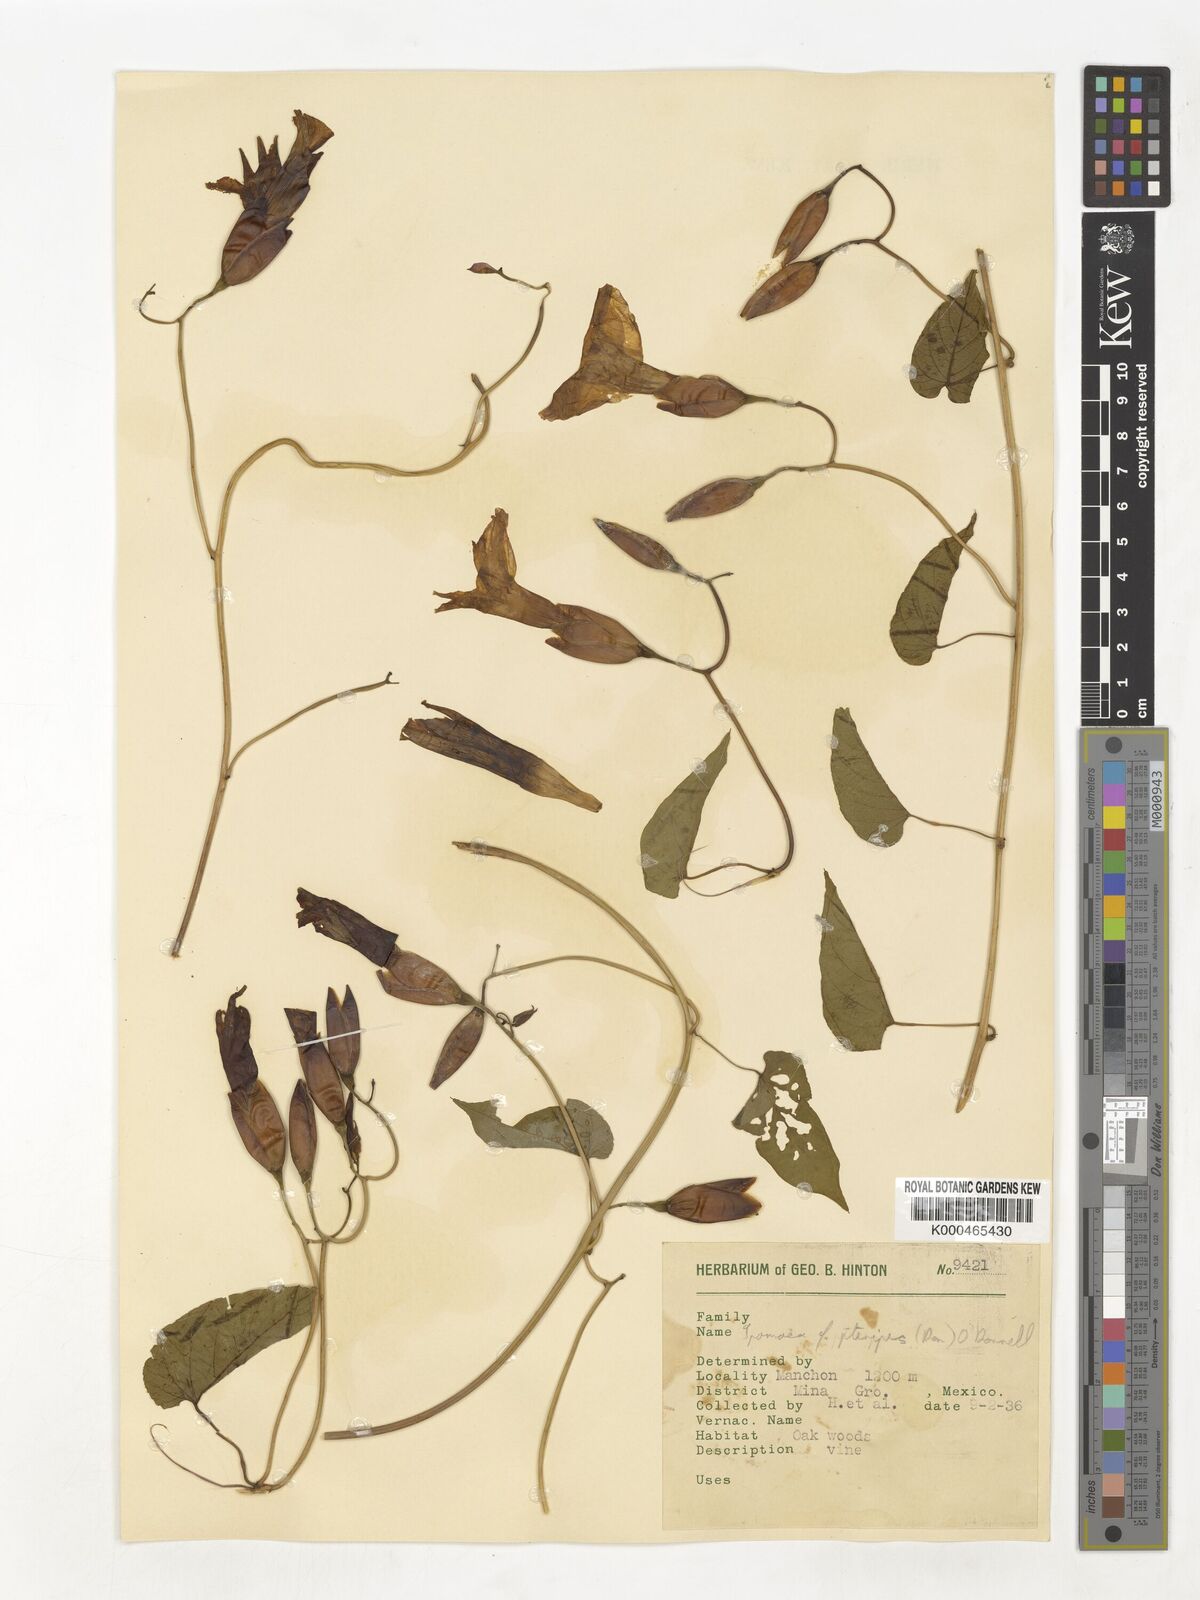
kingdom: Plantae
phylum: Tracheophyta
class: Magnoliopsida
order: Solanales
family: Convolvulaceae
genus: Operculina
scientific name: Operculina
